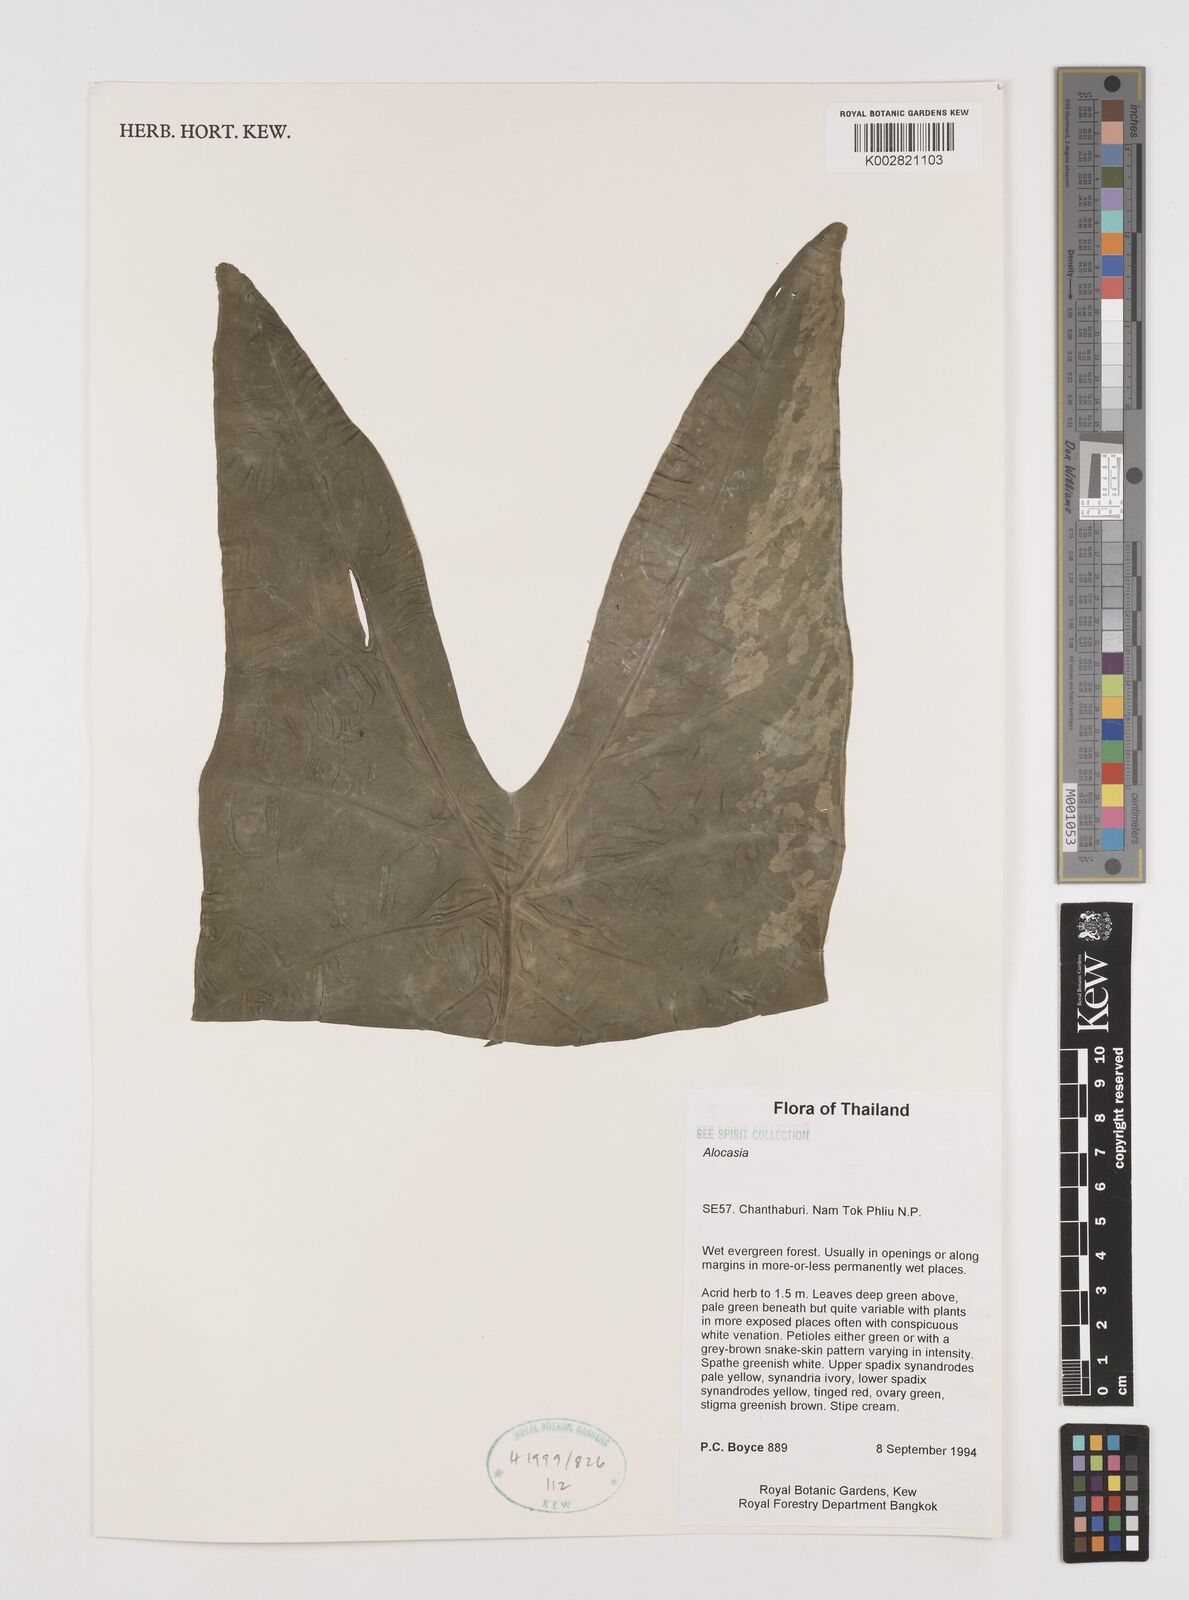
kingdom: Plantae
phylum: Tracheophyta
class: Liliopsida
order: Alismatales
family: Araceae
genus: Alocasia
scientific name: Alocasia
